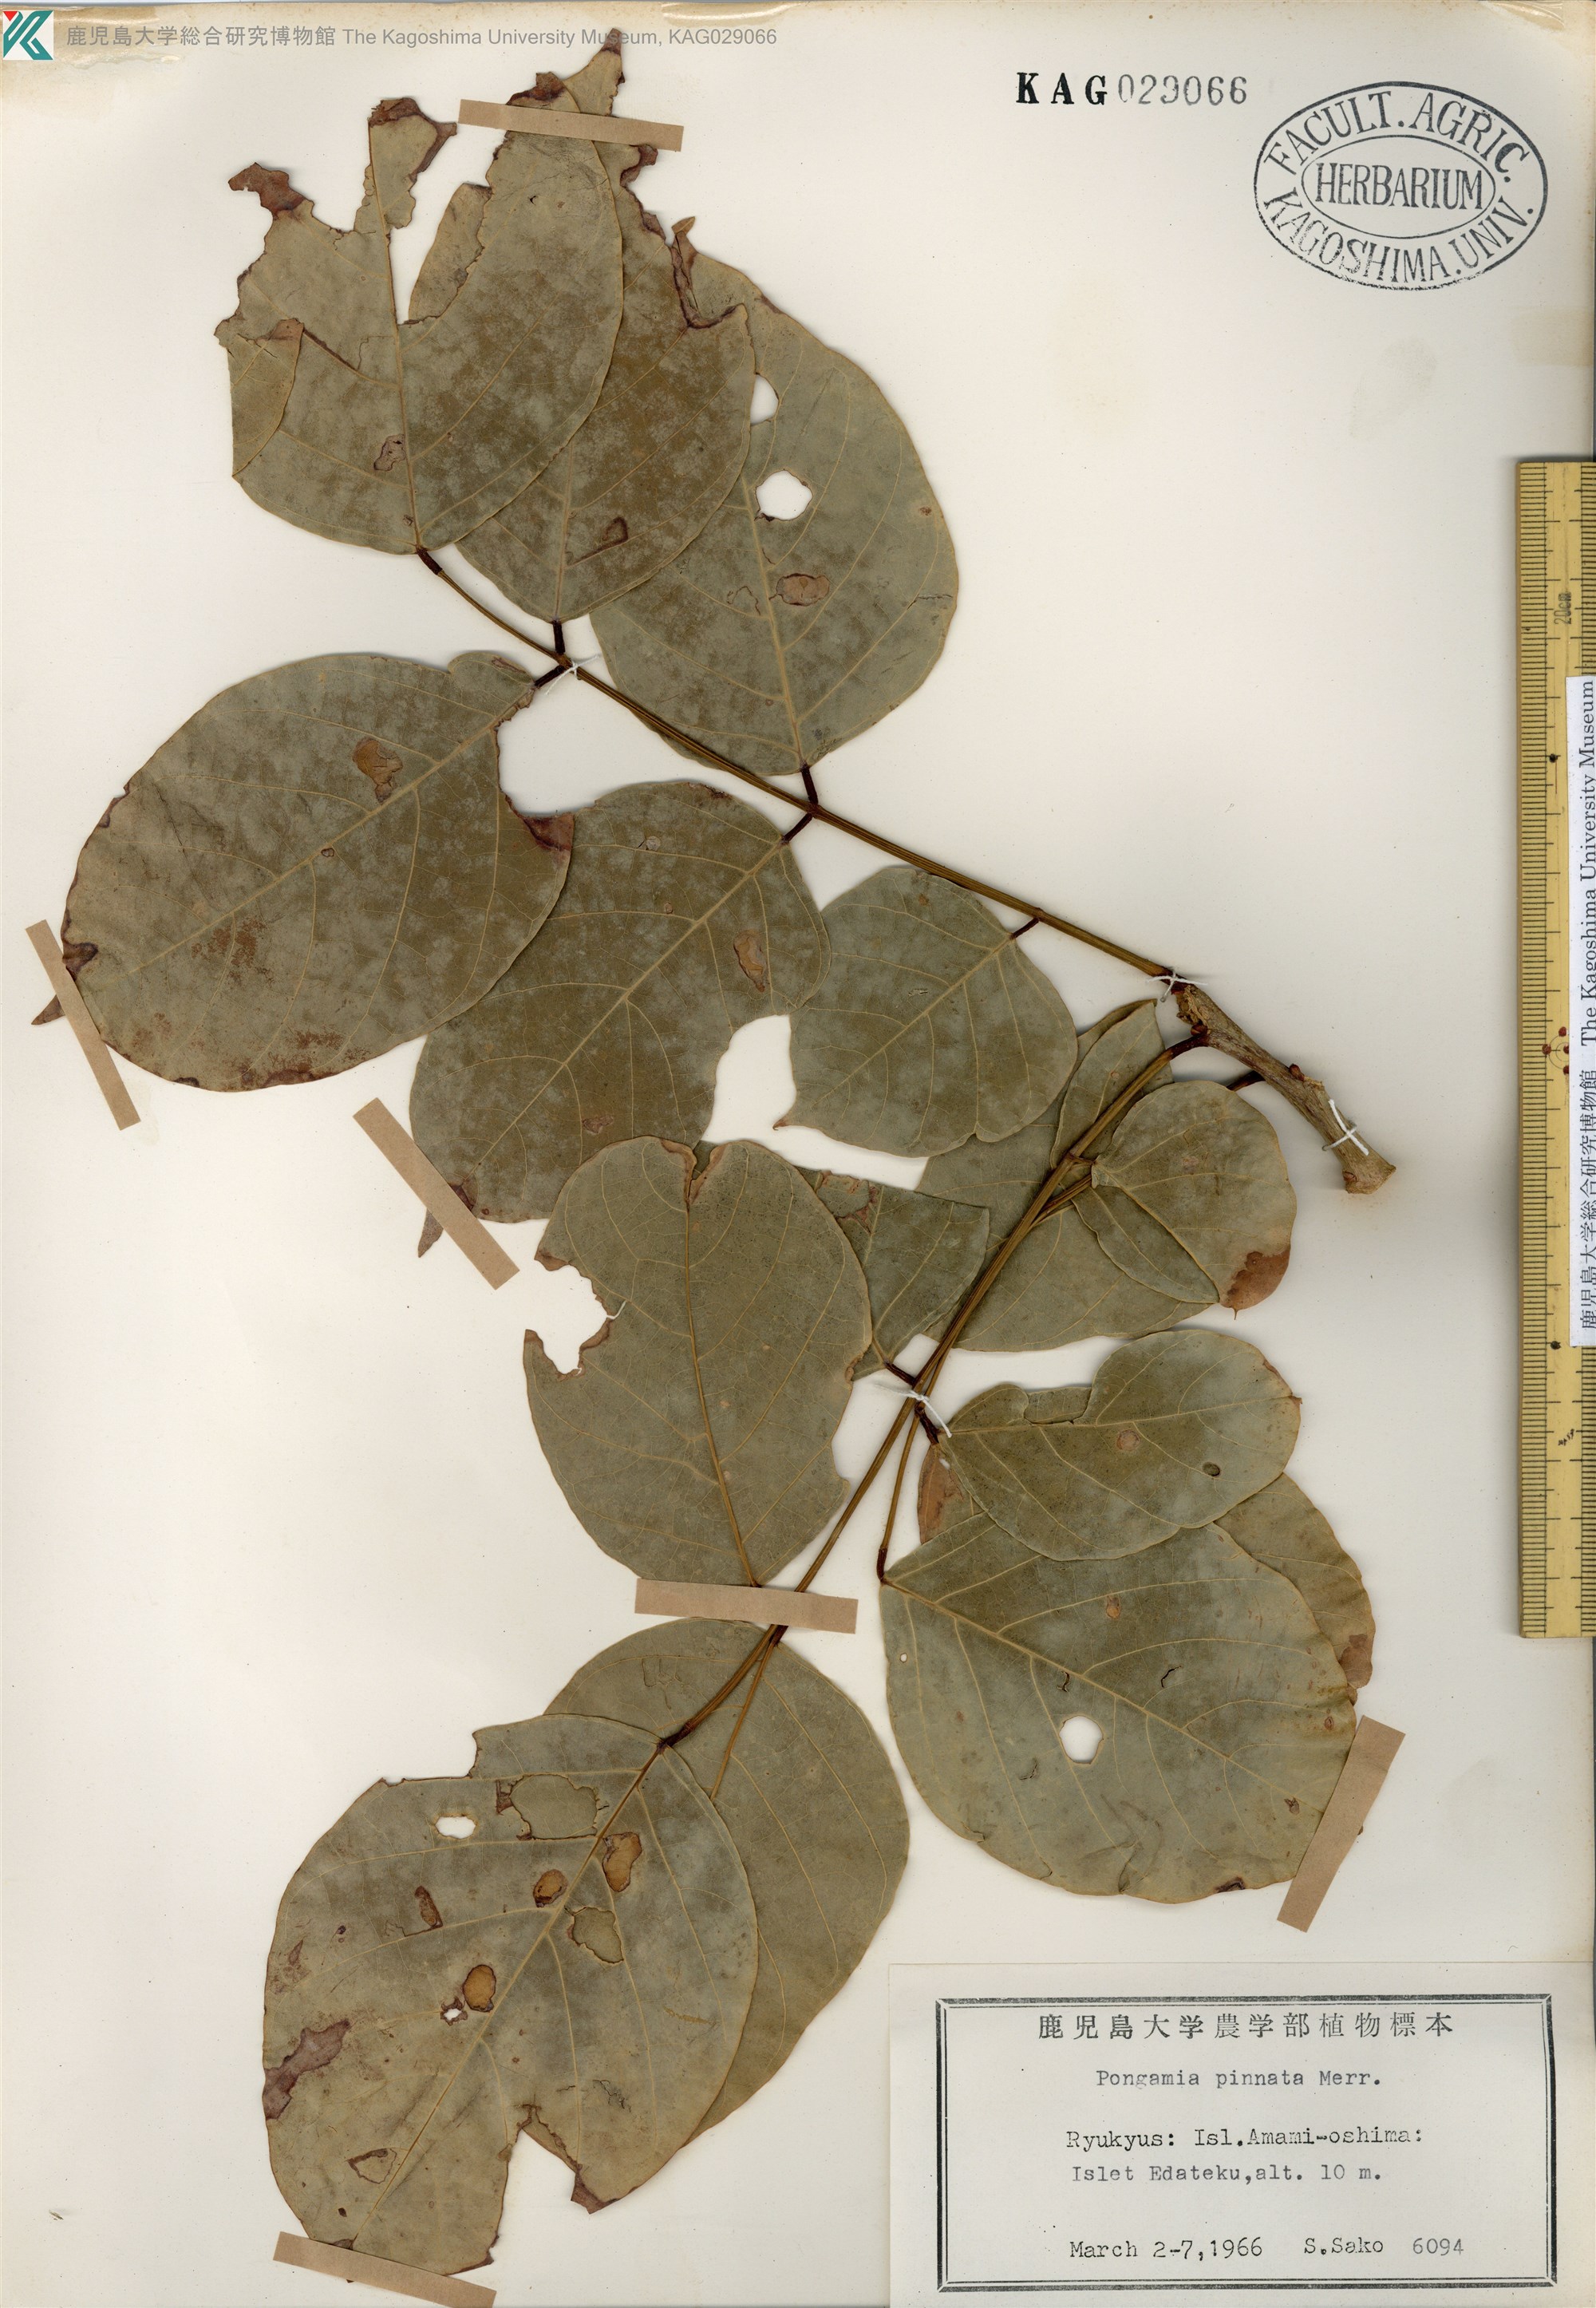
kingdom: Plantae
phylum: Tracheophyta
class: Magnoliopsida
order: Fabales
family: Fabaceae
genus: Pongamia
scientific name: Pongamia pinnata
